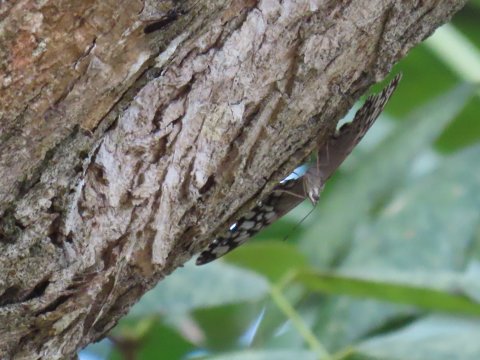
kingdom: Animalia
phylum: Arthropoda
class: Insecta
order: Lepidoptera
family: Nymphalidae
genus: Hamadryas
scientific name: Hamadryas februa
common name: Gray Cracker
